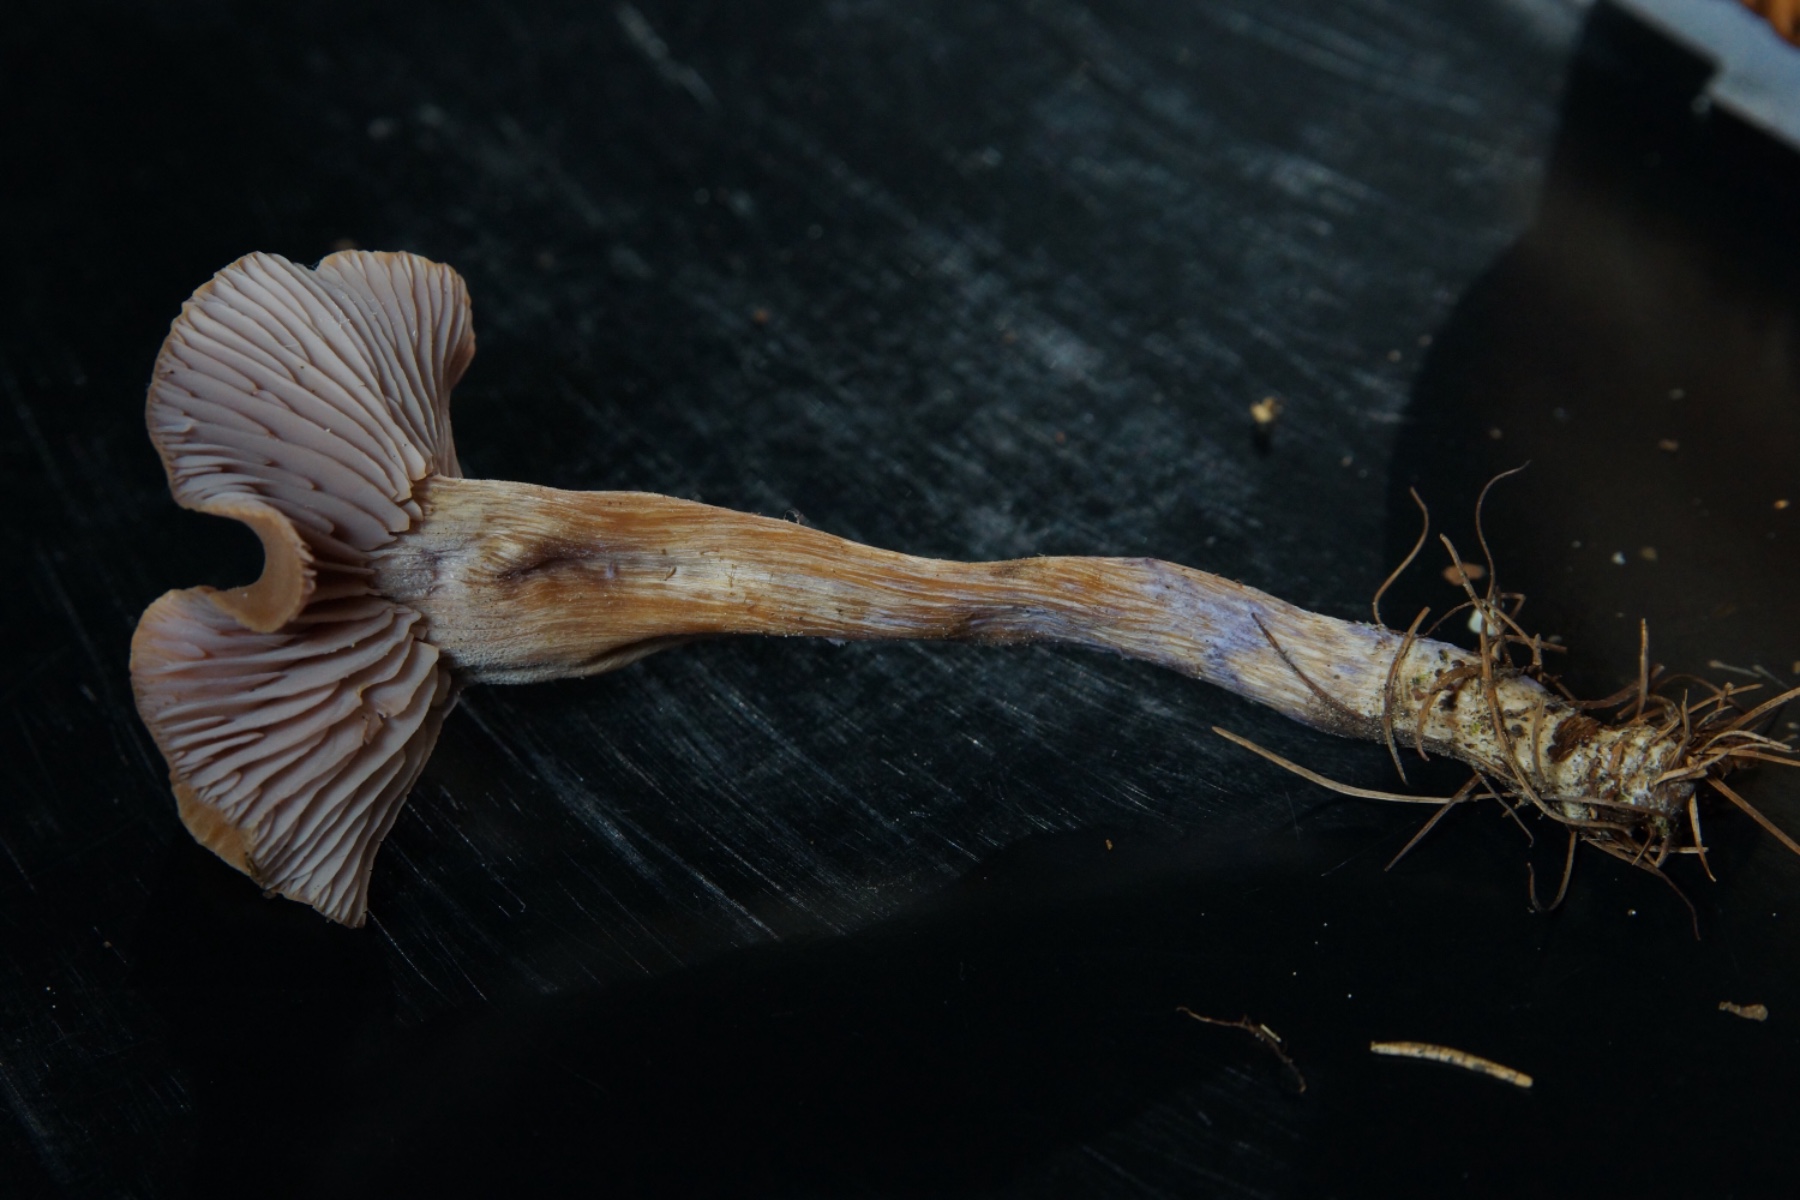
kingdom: Fungi
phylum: Basidiomycota
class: Agaricomycetes
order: Agaricales
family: Hydnangiaceae
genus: Laccaria
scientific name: Laccaria bicolor
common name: tvefarvet ametysthat
